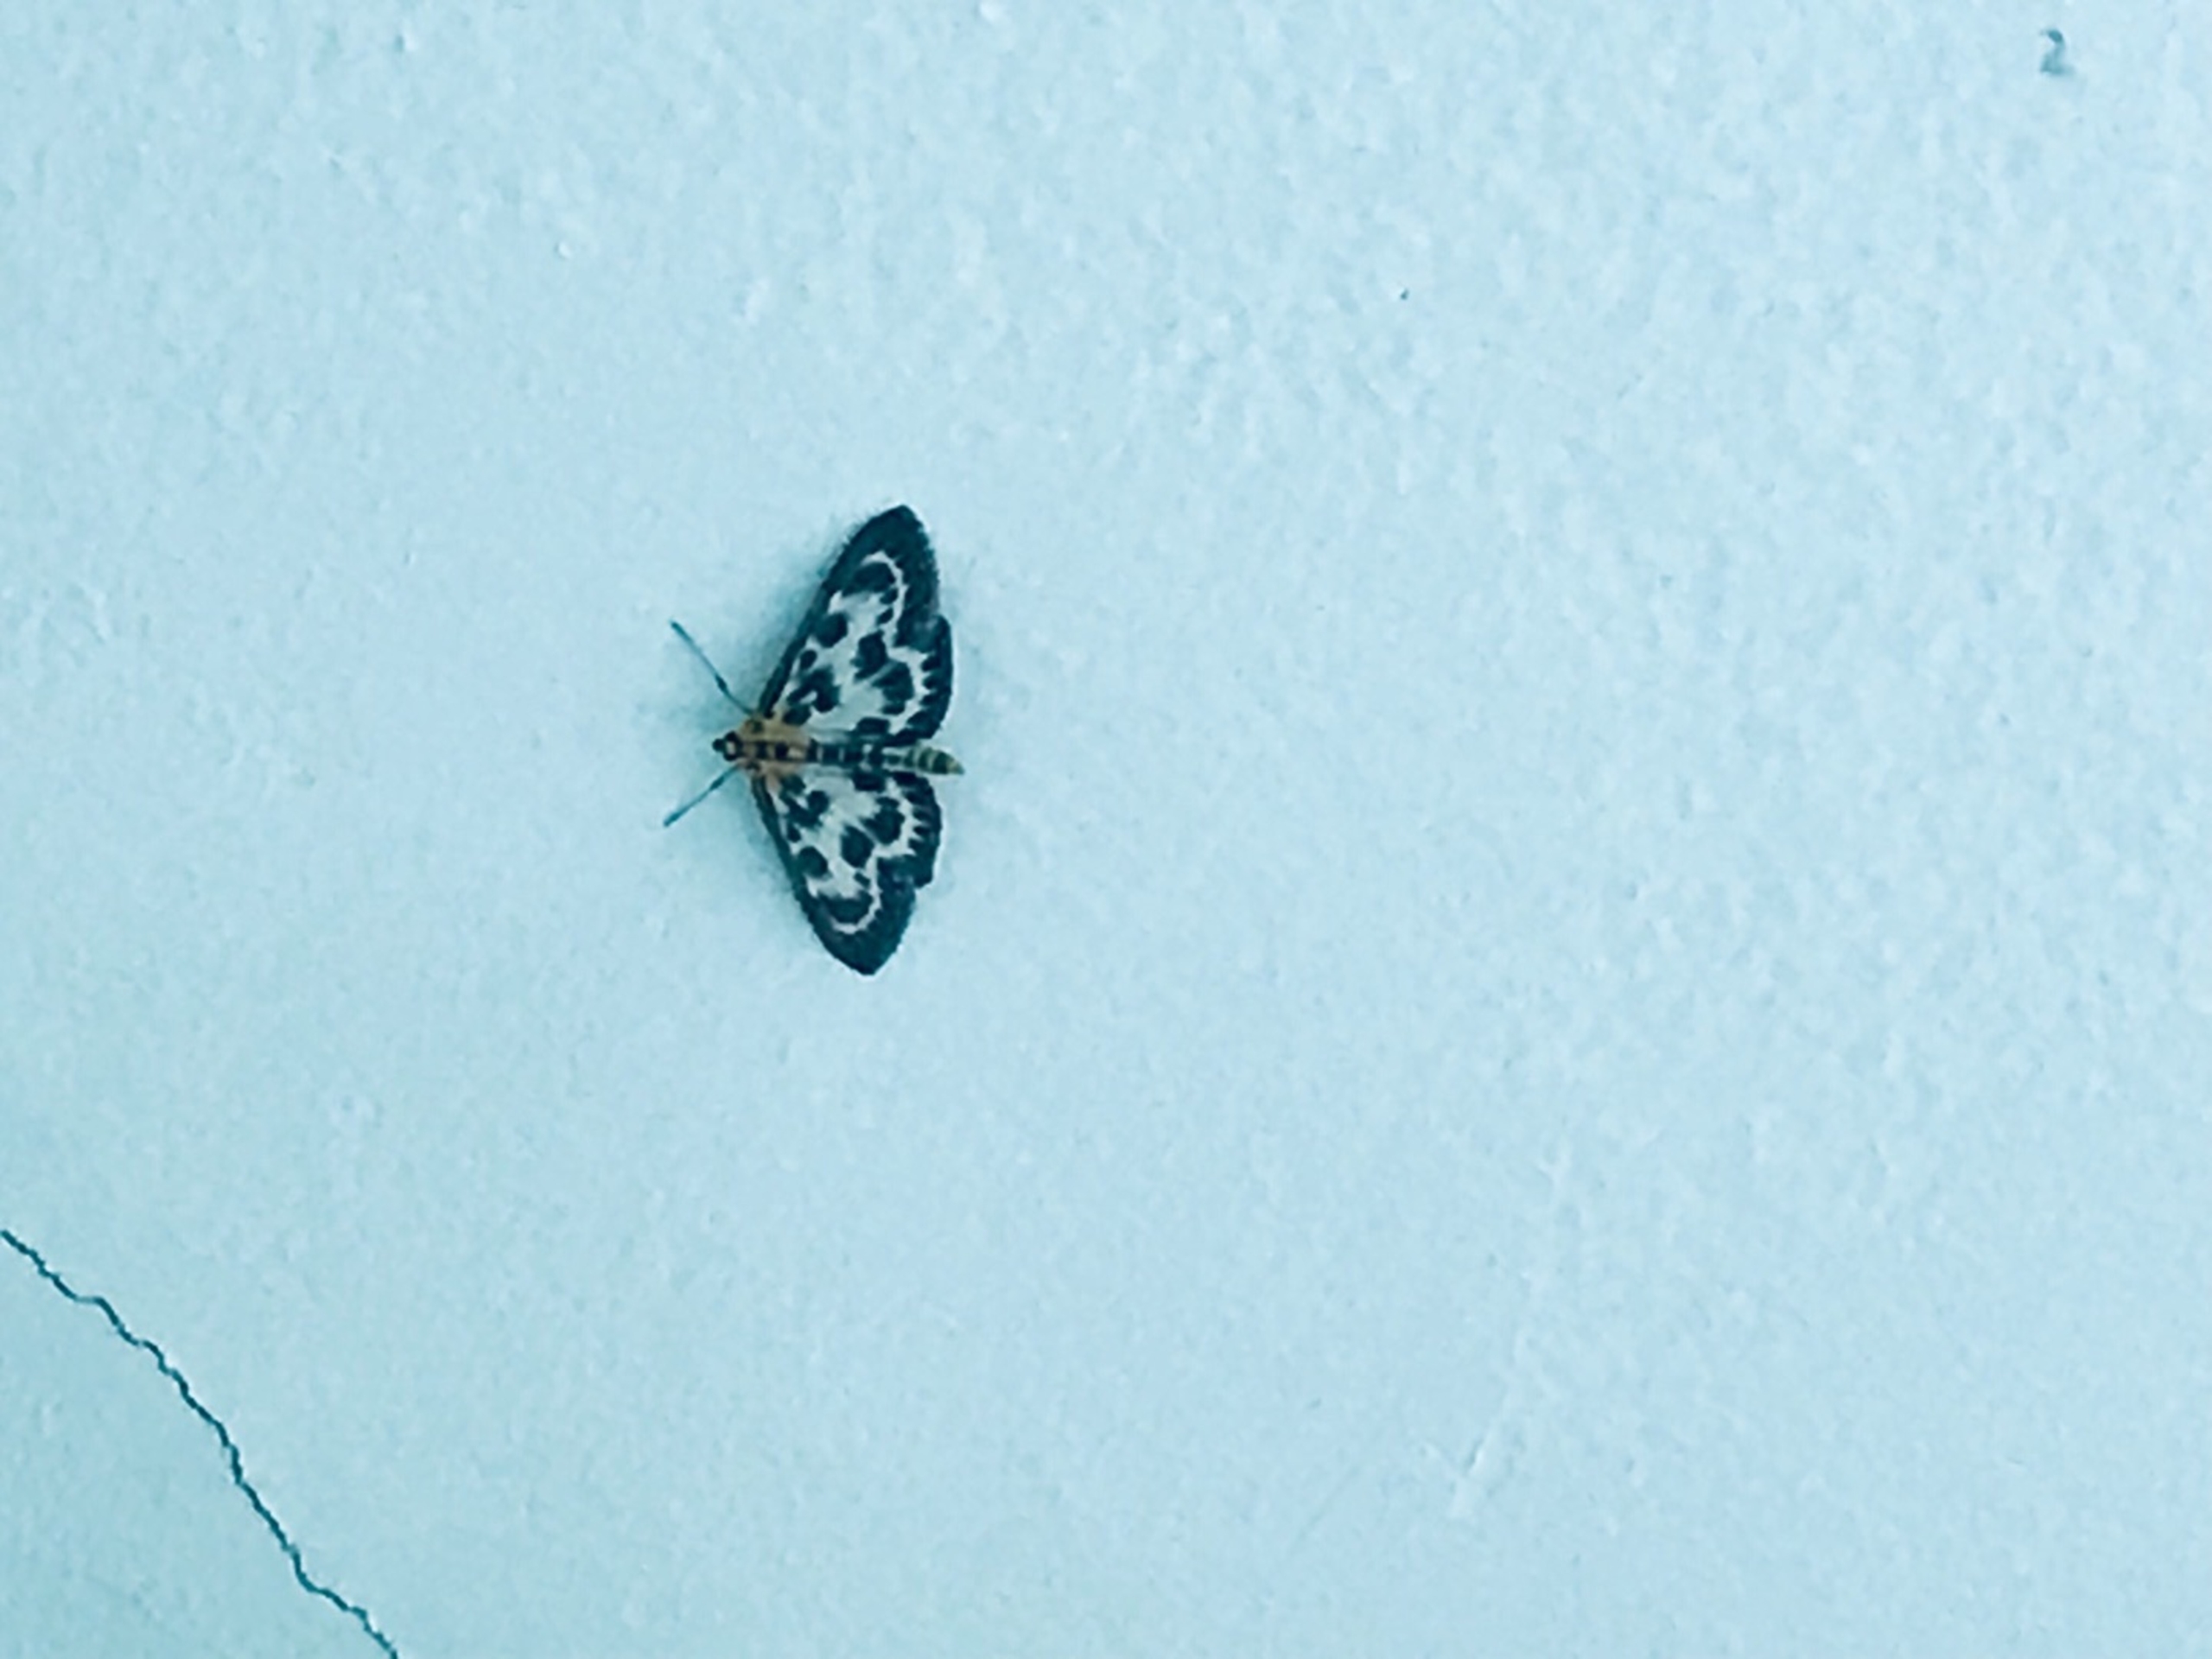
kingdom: Animalia
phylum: Arthropoda
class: Insecta
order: Lepidoptera
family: Crambidae
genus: Anania
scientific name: Anania hortulata
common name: Nældehalvmøl
